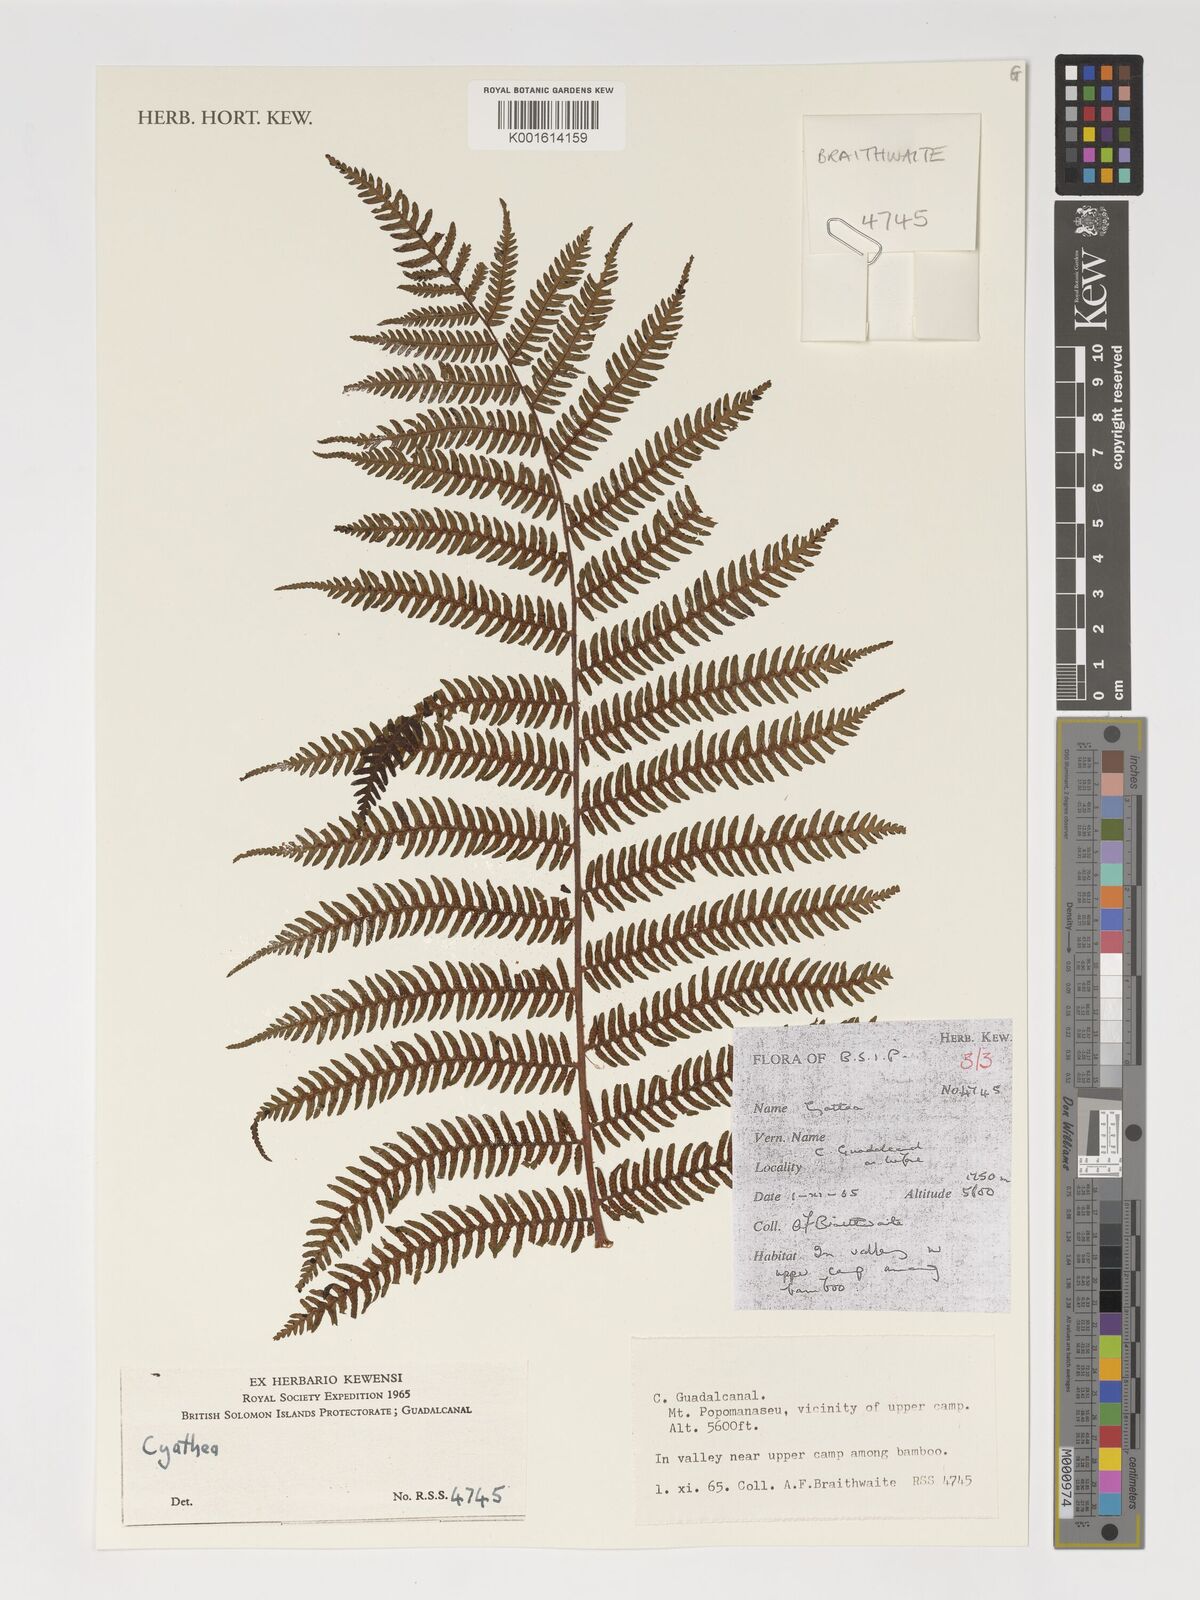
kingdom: Plantae
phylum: Tracheophyta
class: Polypodiopsida
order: Cyatheales
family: Cyatheaceae
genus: Alsophila
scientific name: Alsophila archboldii
